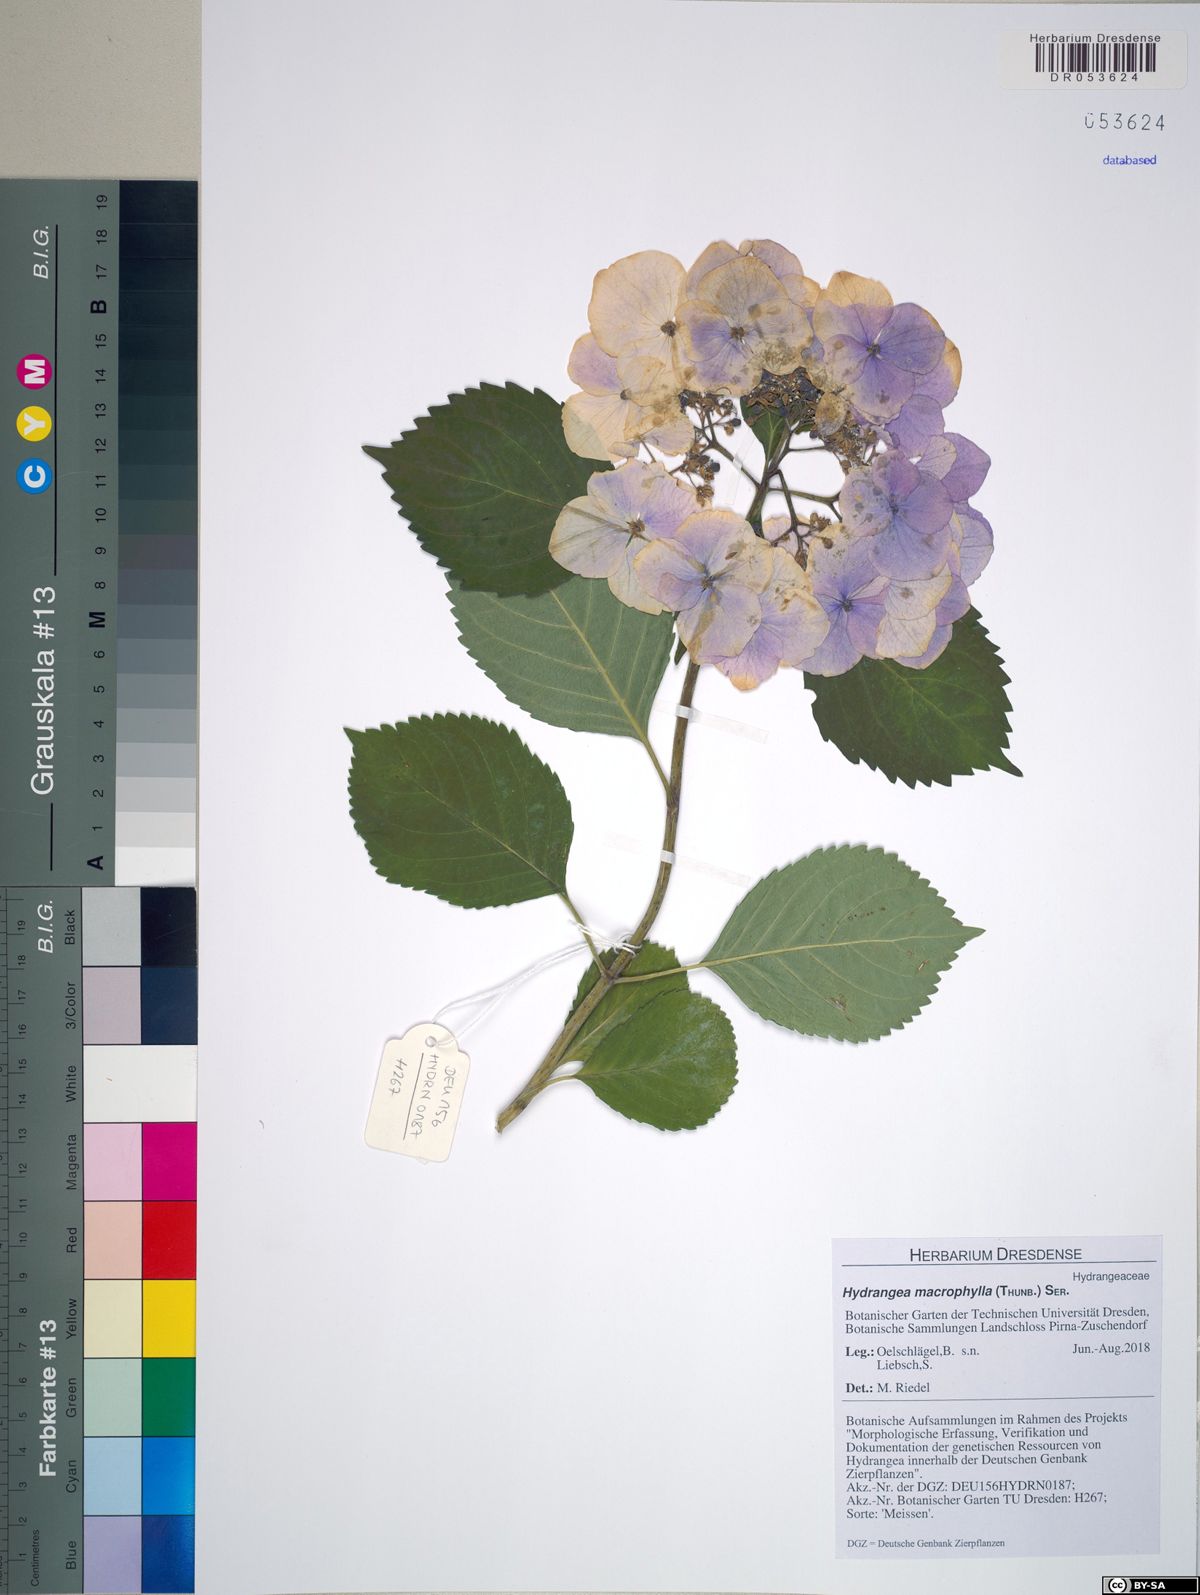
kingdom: Plantae
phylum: Tracheophyta
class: Magnoliopsida
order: Cornales
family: Hydrangeaceae
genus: Hydrangea
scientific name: Hydrangea macrophylla
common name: Hydrangea
